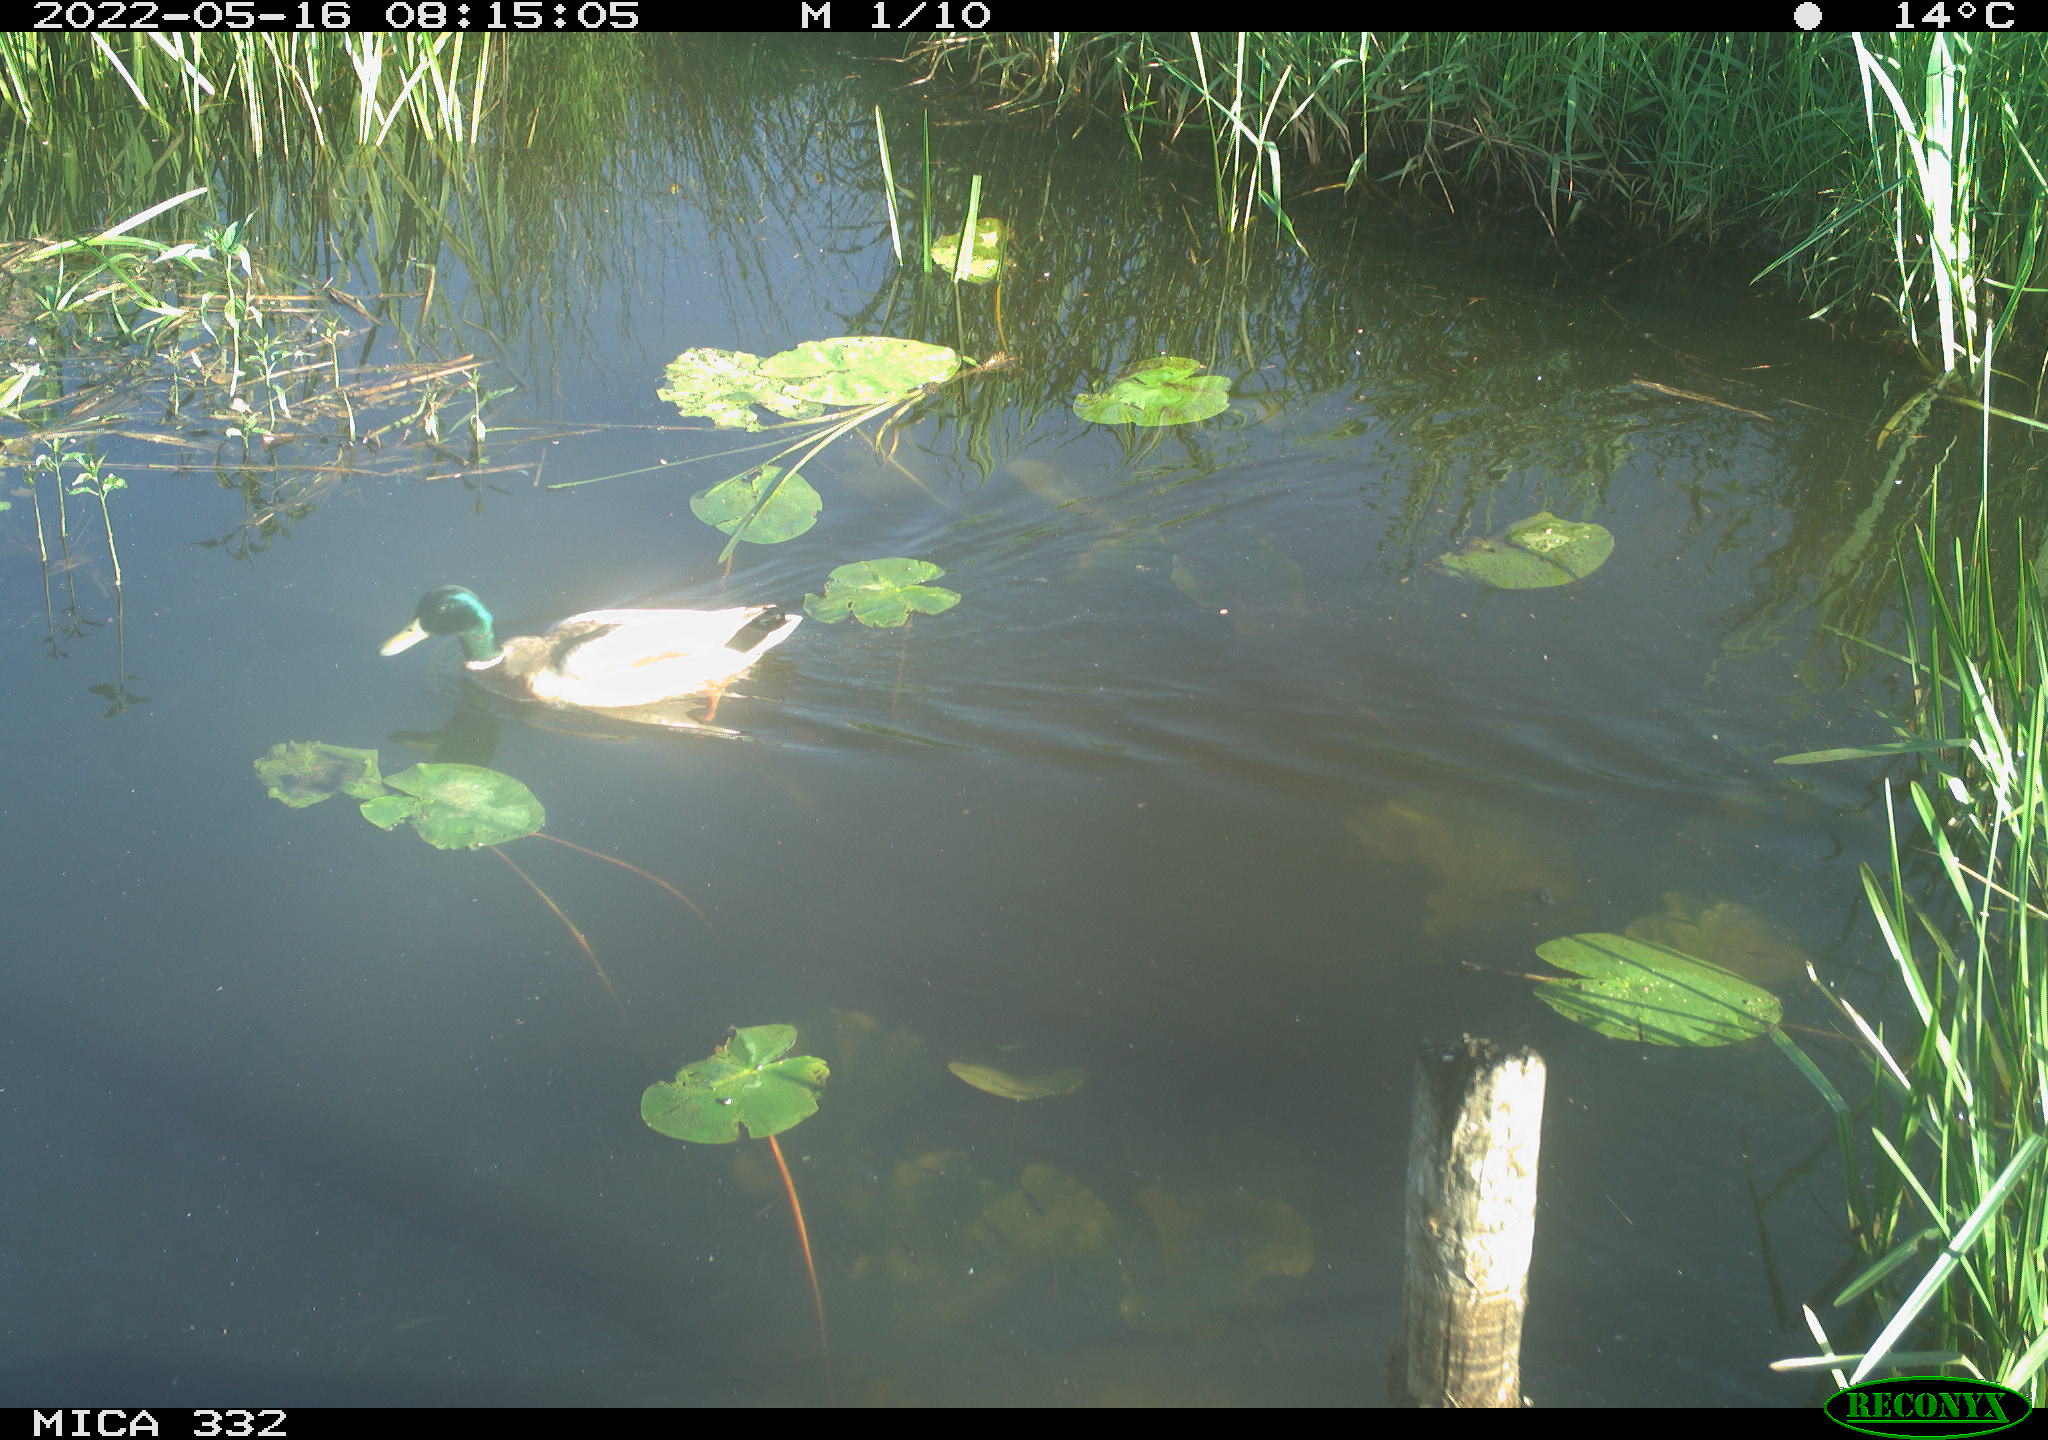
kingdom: Animalia
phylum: Chordata
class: Aves
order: Anseriformes
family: Anatidae
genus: Anas
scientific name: Anas platyrhynchos
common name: Mallard
